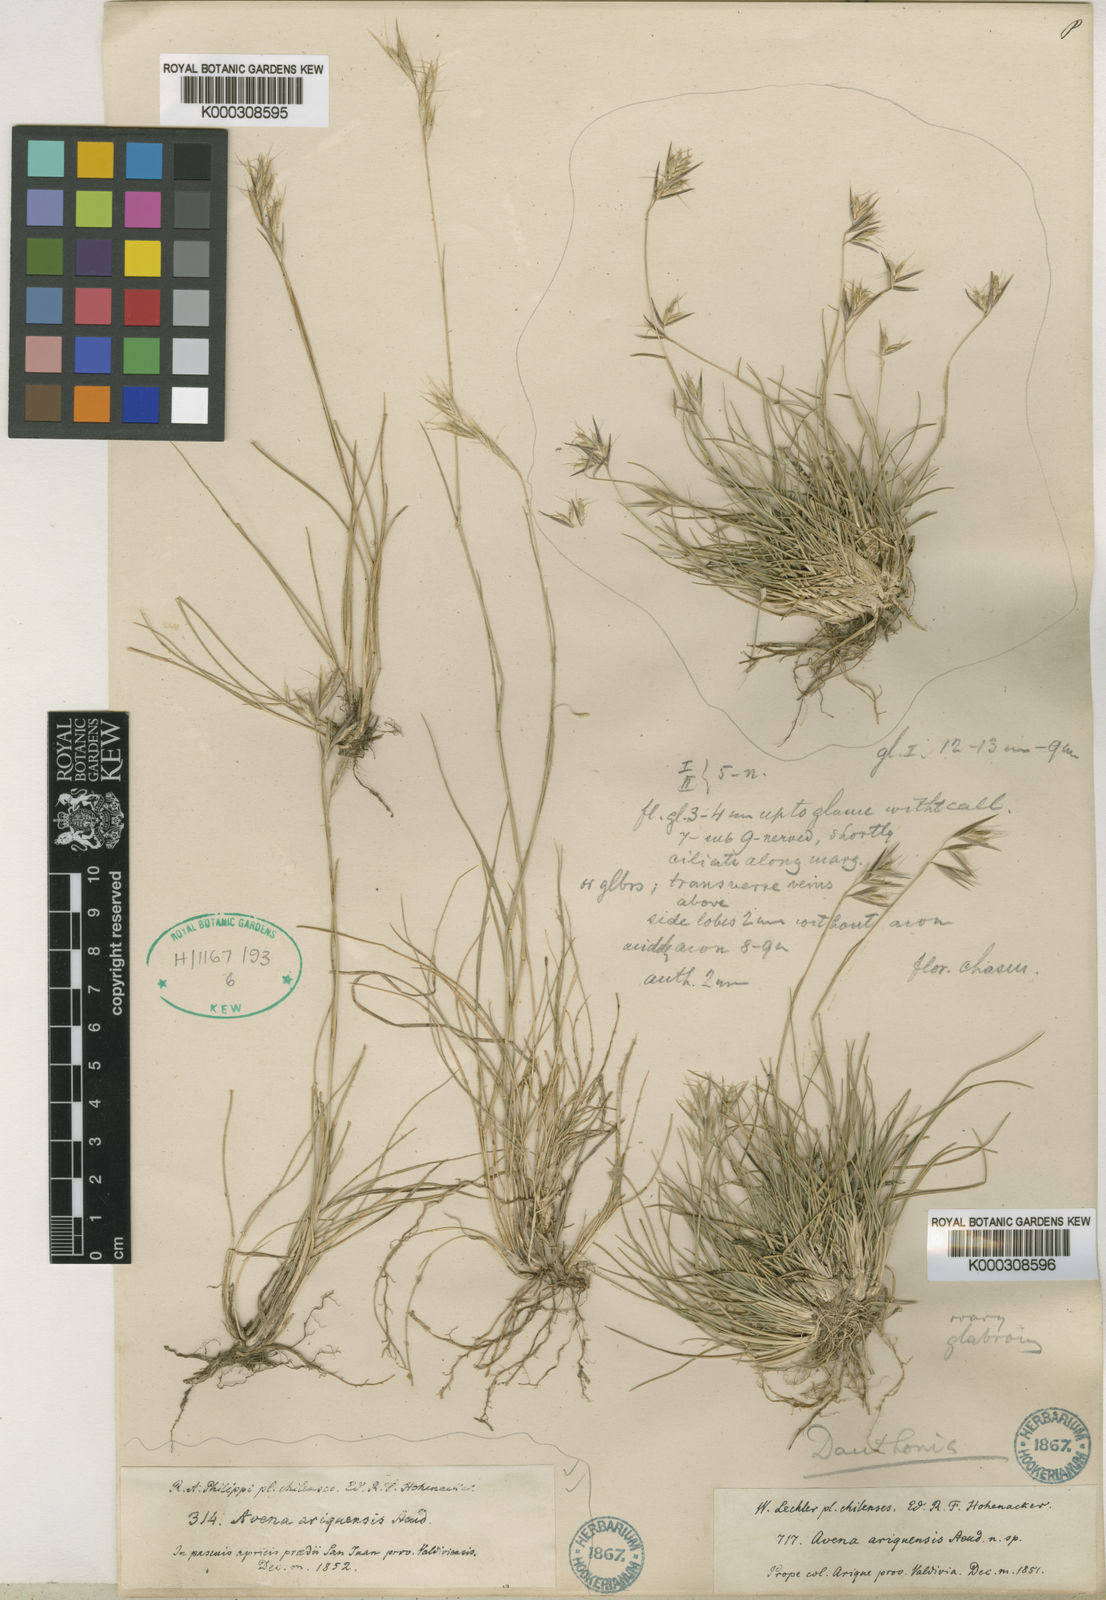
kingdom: Plantae
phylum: Tracheophyta
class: Liliopsida
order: Poales
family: Poaceae
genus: Danthonia
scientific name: Danthonia chilensis
